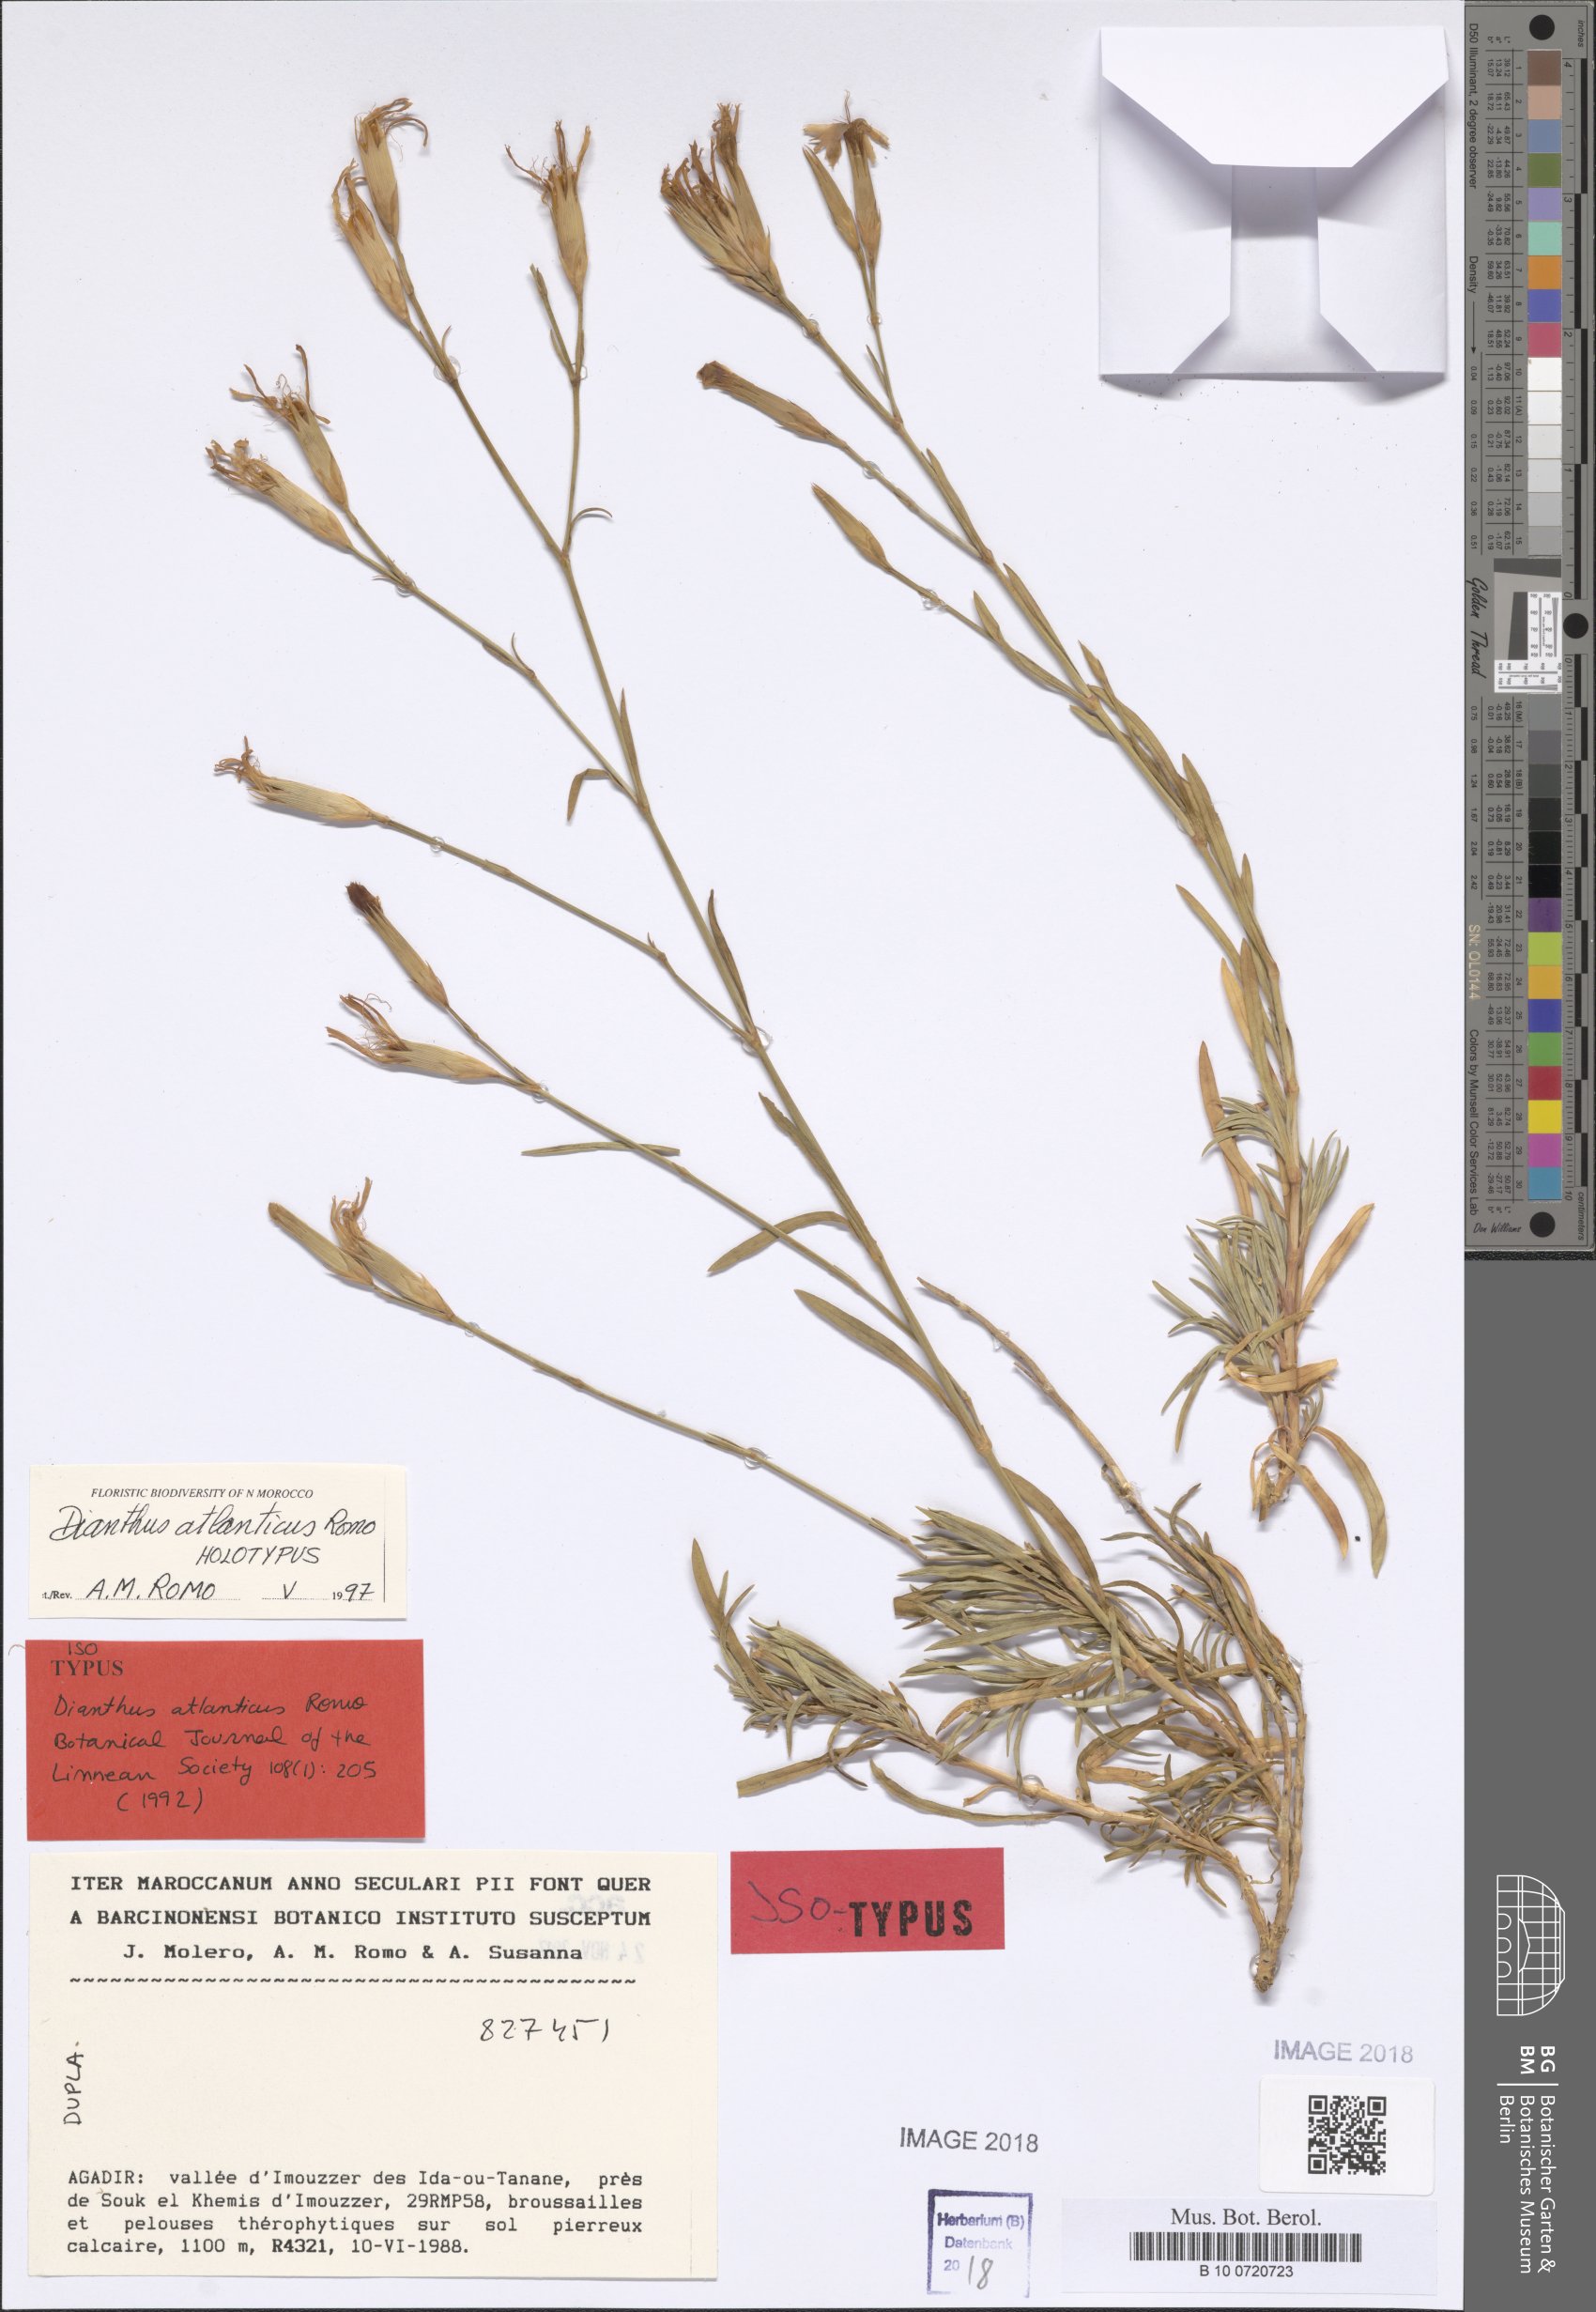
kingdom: Plantae
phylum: Tracheophyta
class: Magnoliopsida
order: Caryophyllales
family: Caryophyllaceae
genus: Dianthus
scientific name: Dianthus lusitanus
